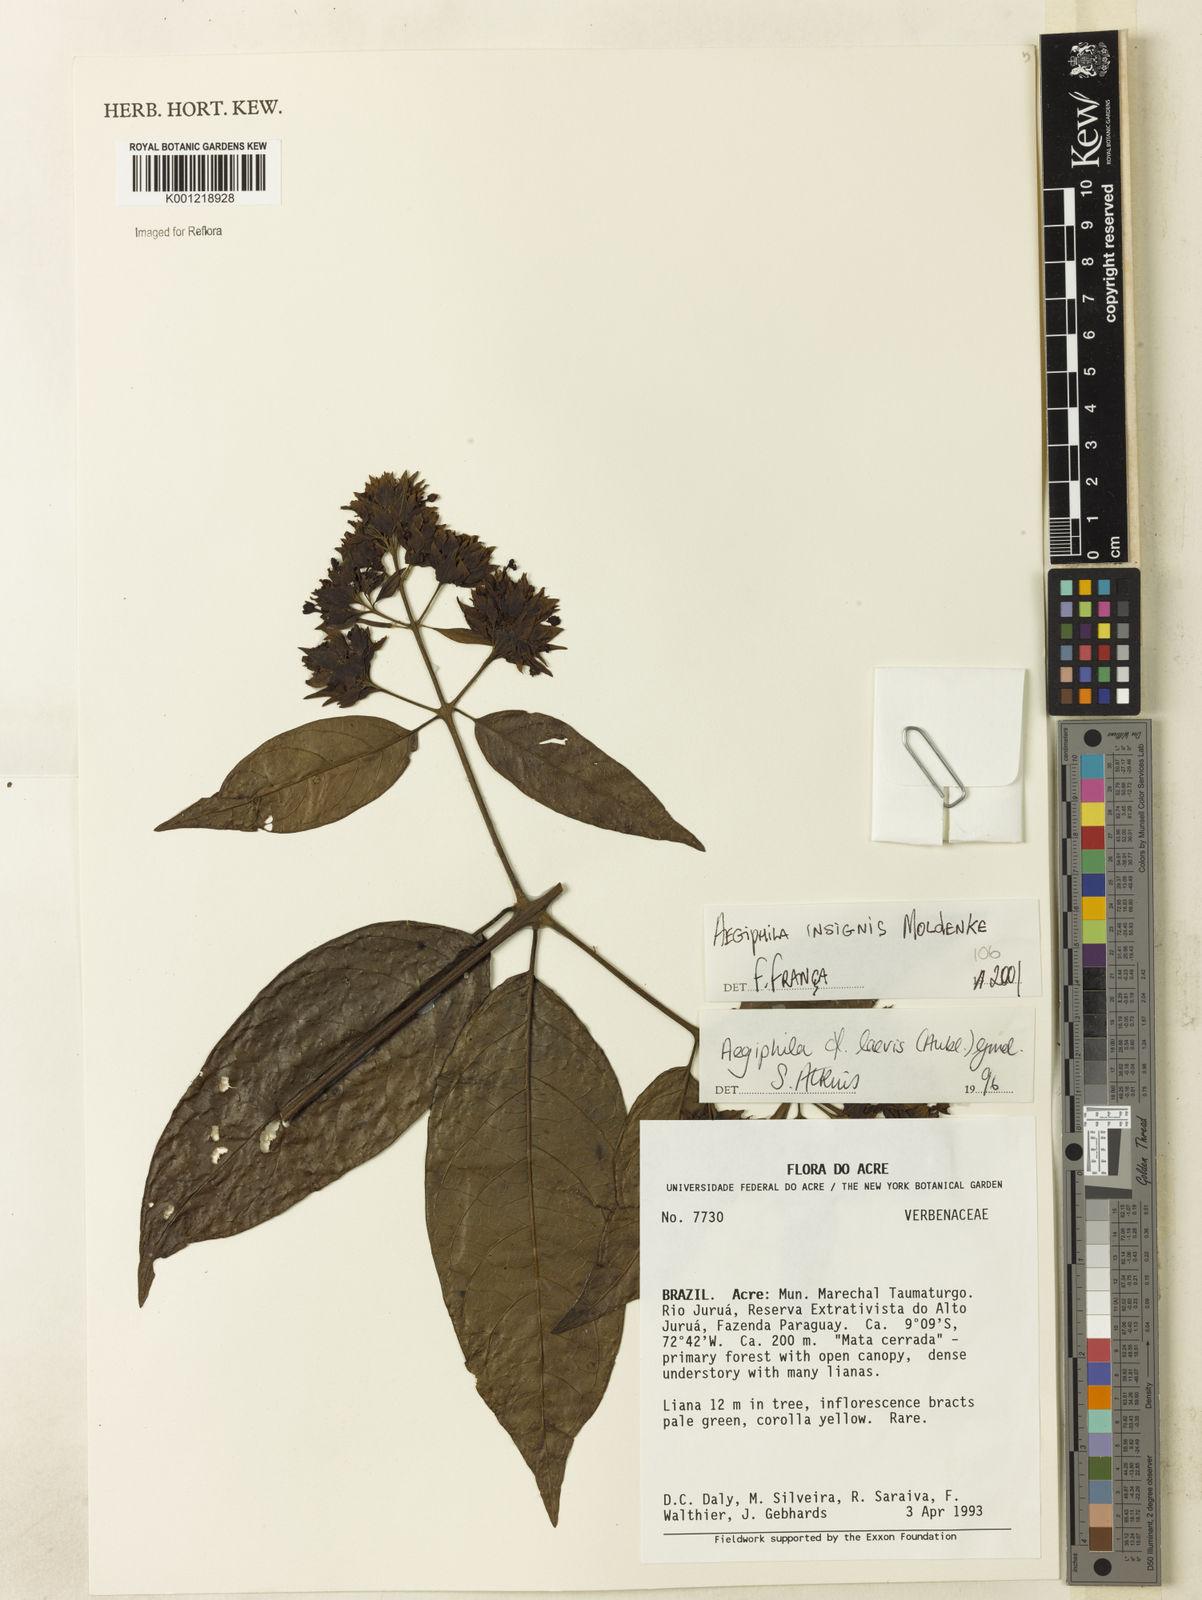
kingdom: Plantae
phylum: Tracheophyta
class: Magnoliopsida
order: Lamiales
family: Lamiaceae
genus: Aegiphila
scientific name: Aegiphila insignis
